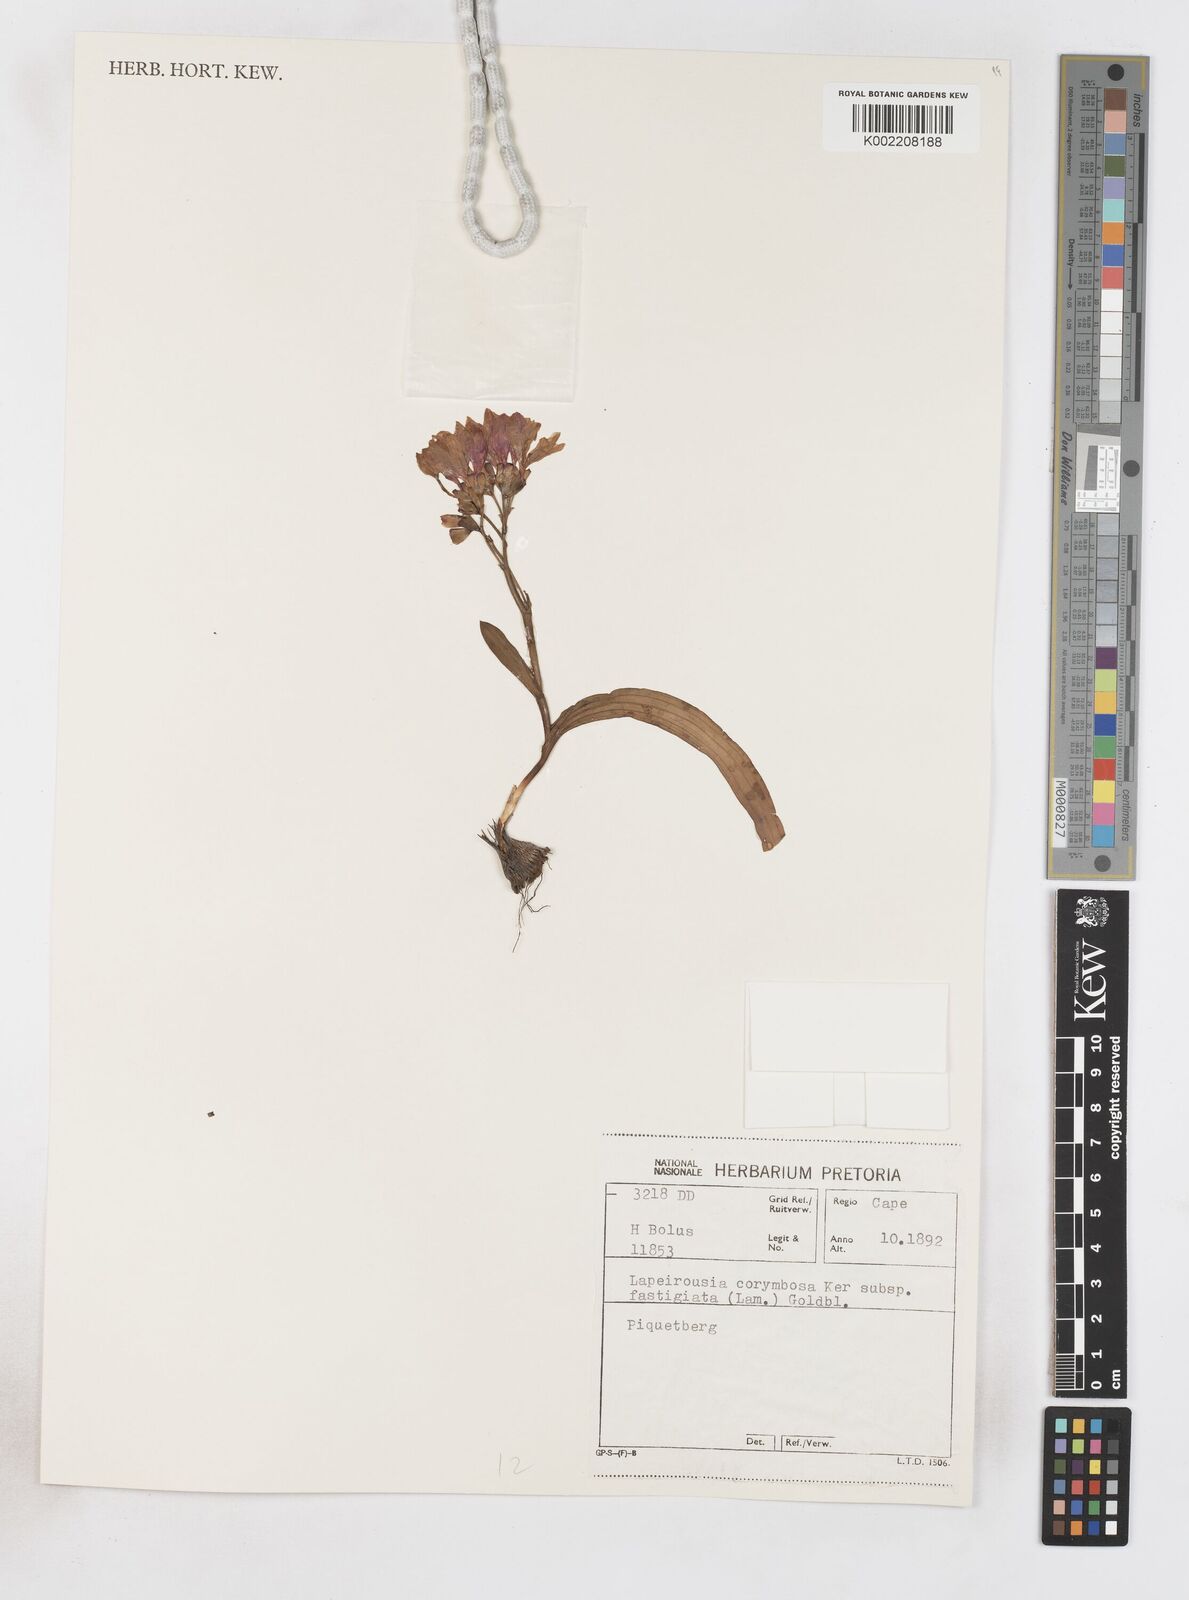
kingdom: Plantae
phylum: Tracheophyta
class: Liliopsida
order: Asparagales
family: Iridaceae
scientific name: Iridaceae
